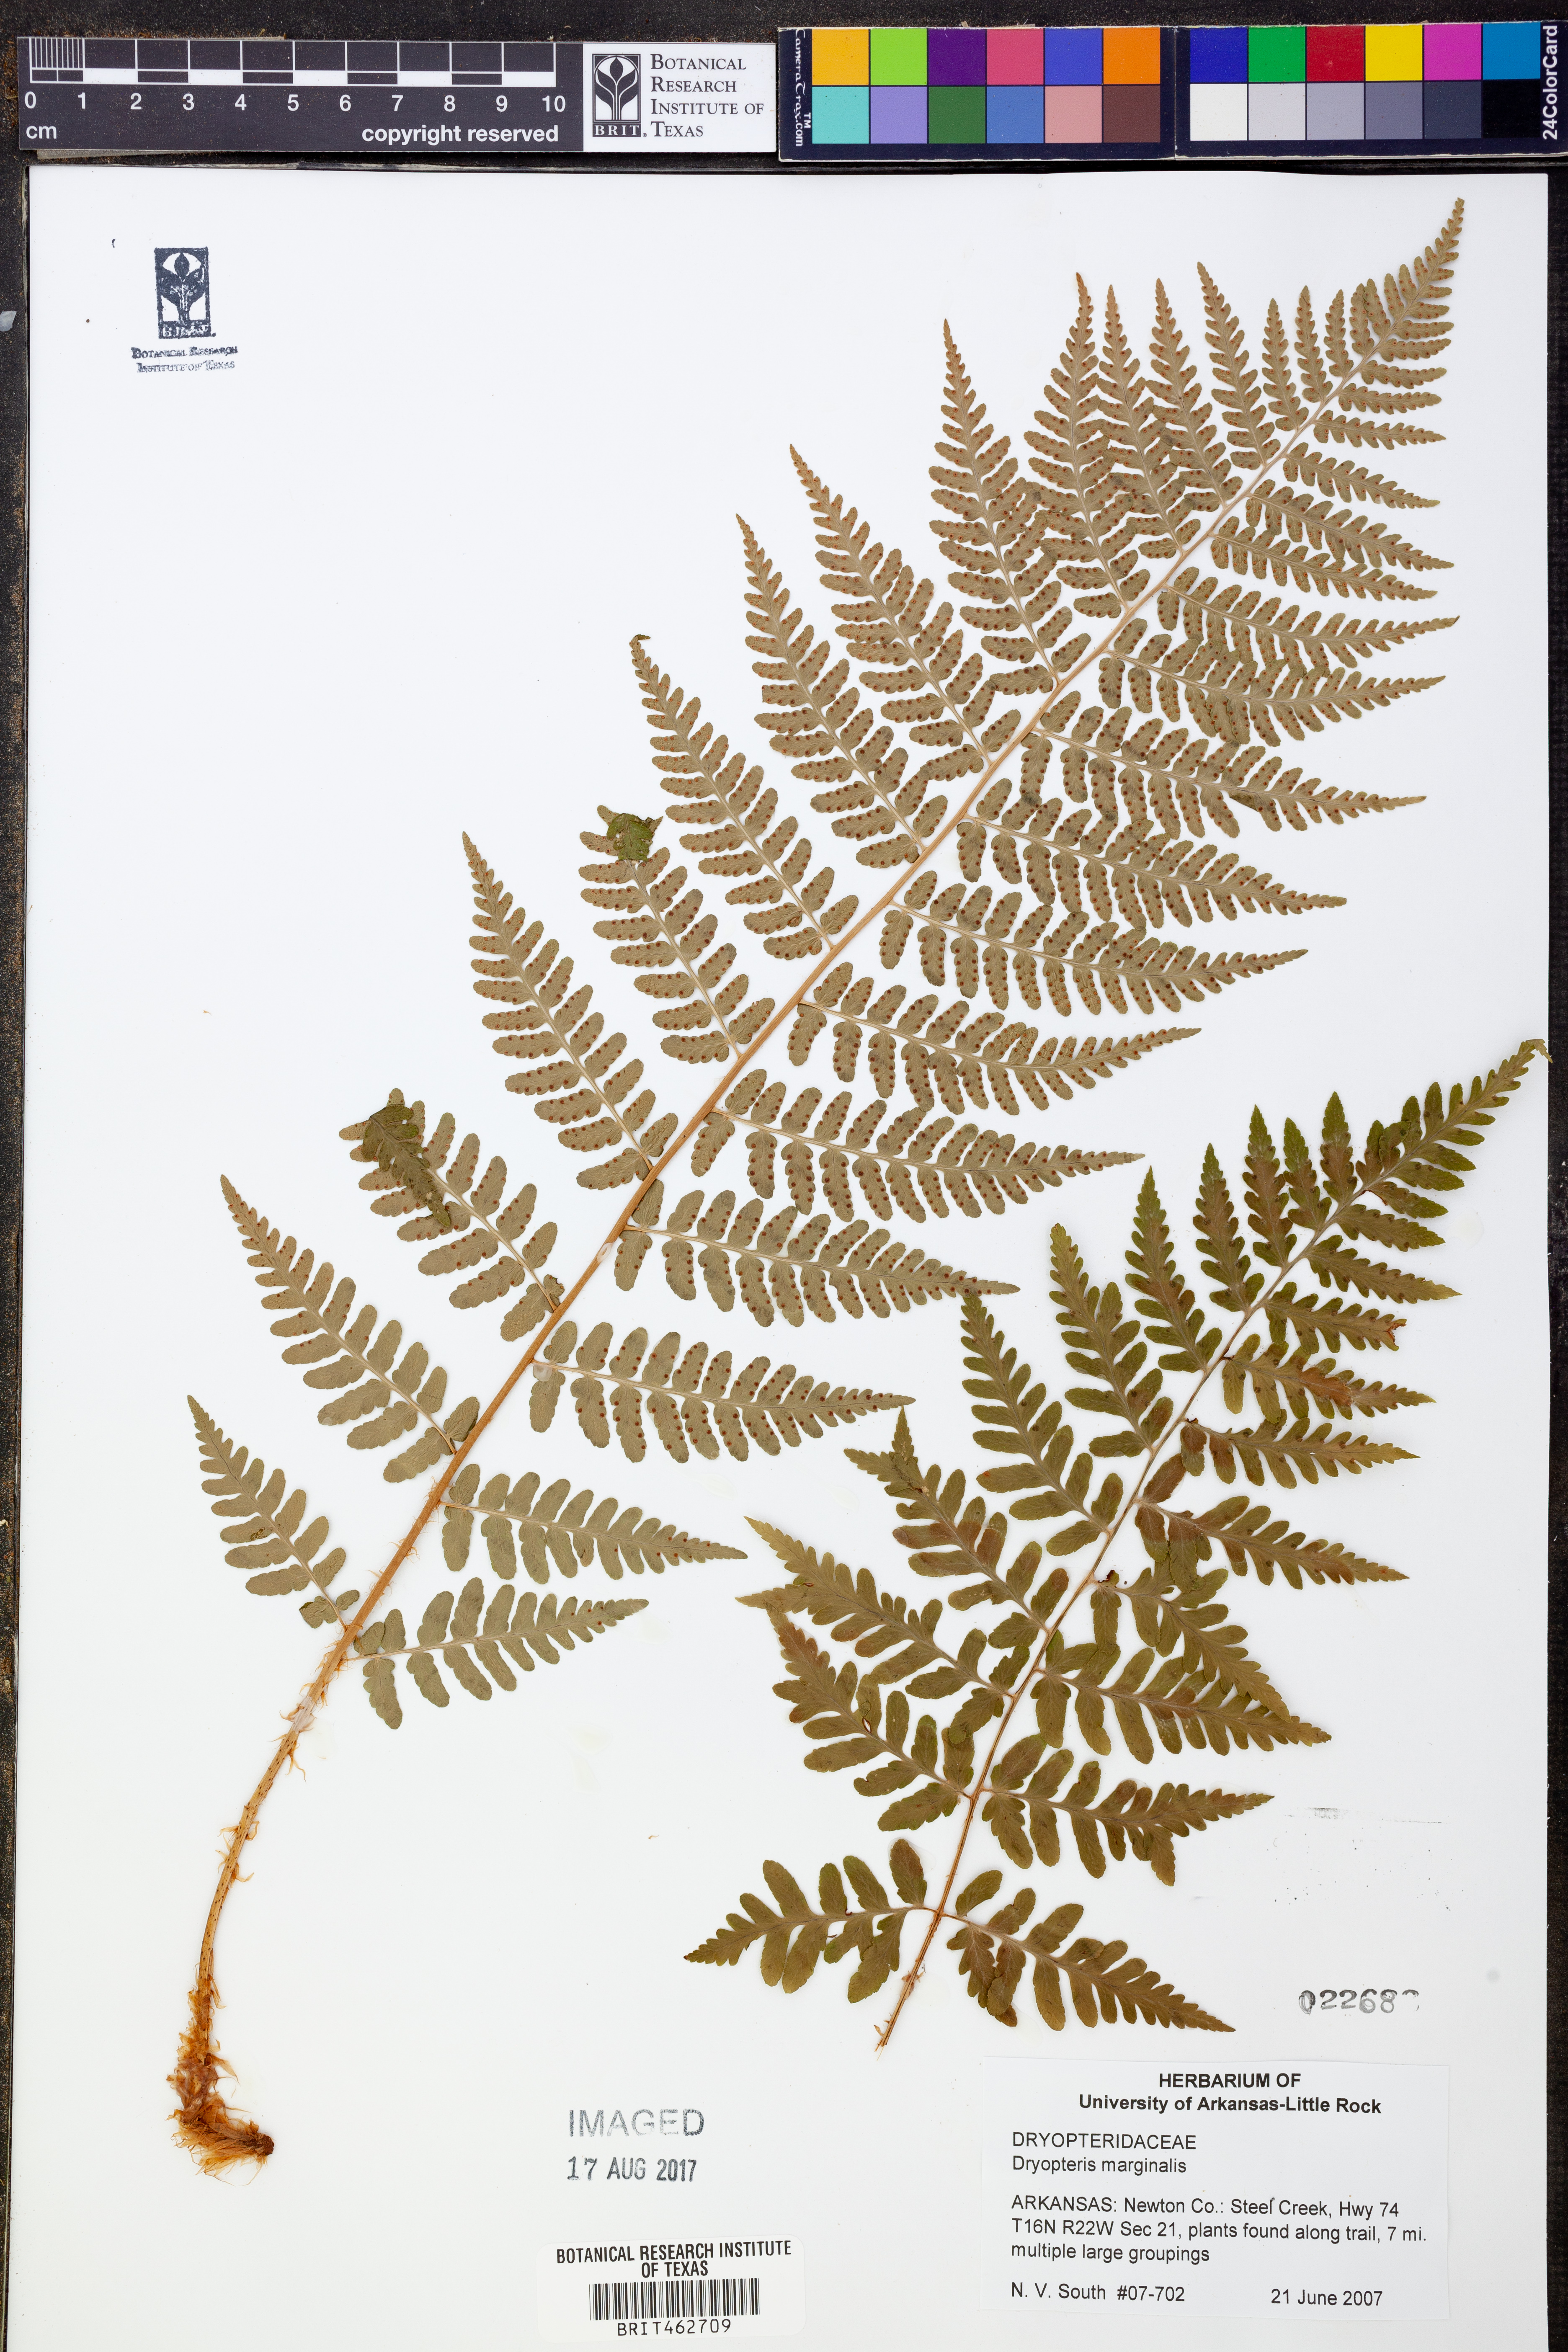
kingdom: Plantae
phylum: Tracheophyta
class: Polypodiopsida
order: Polypodiales
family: Dryopteridaceae
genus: Dryopteris
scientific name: Dryopteris marginalis
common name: Marginal wood fern
